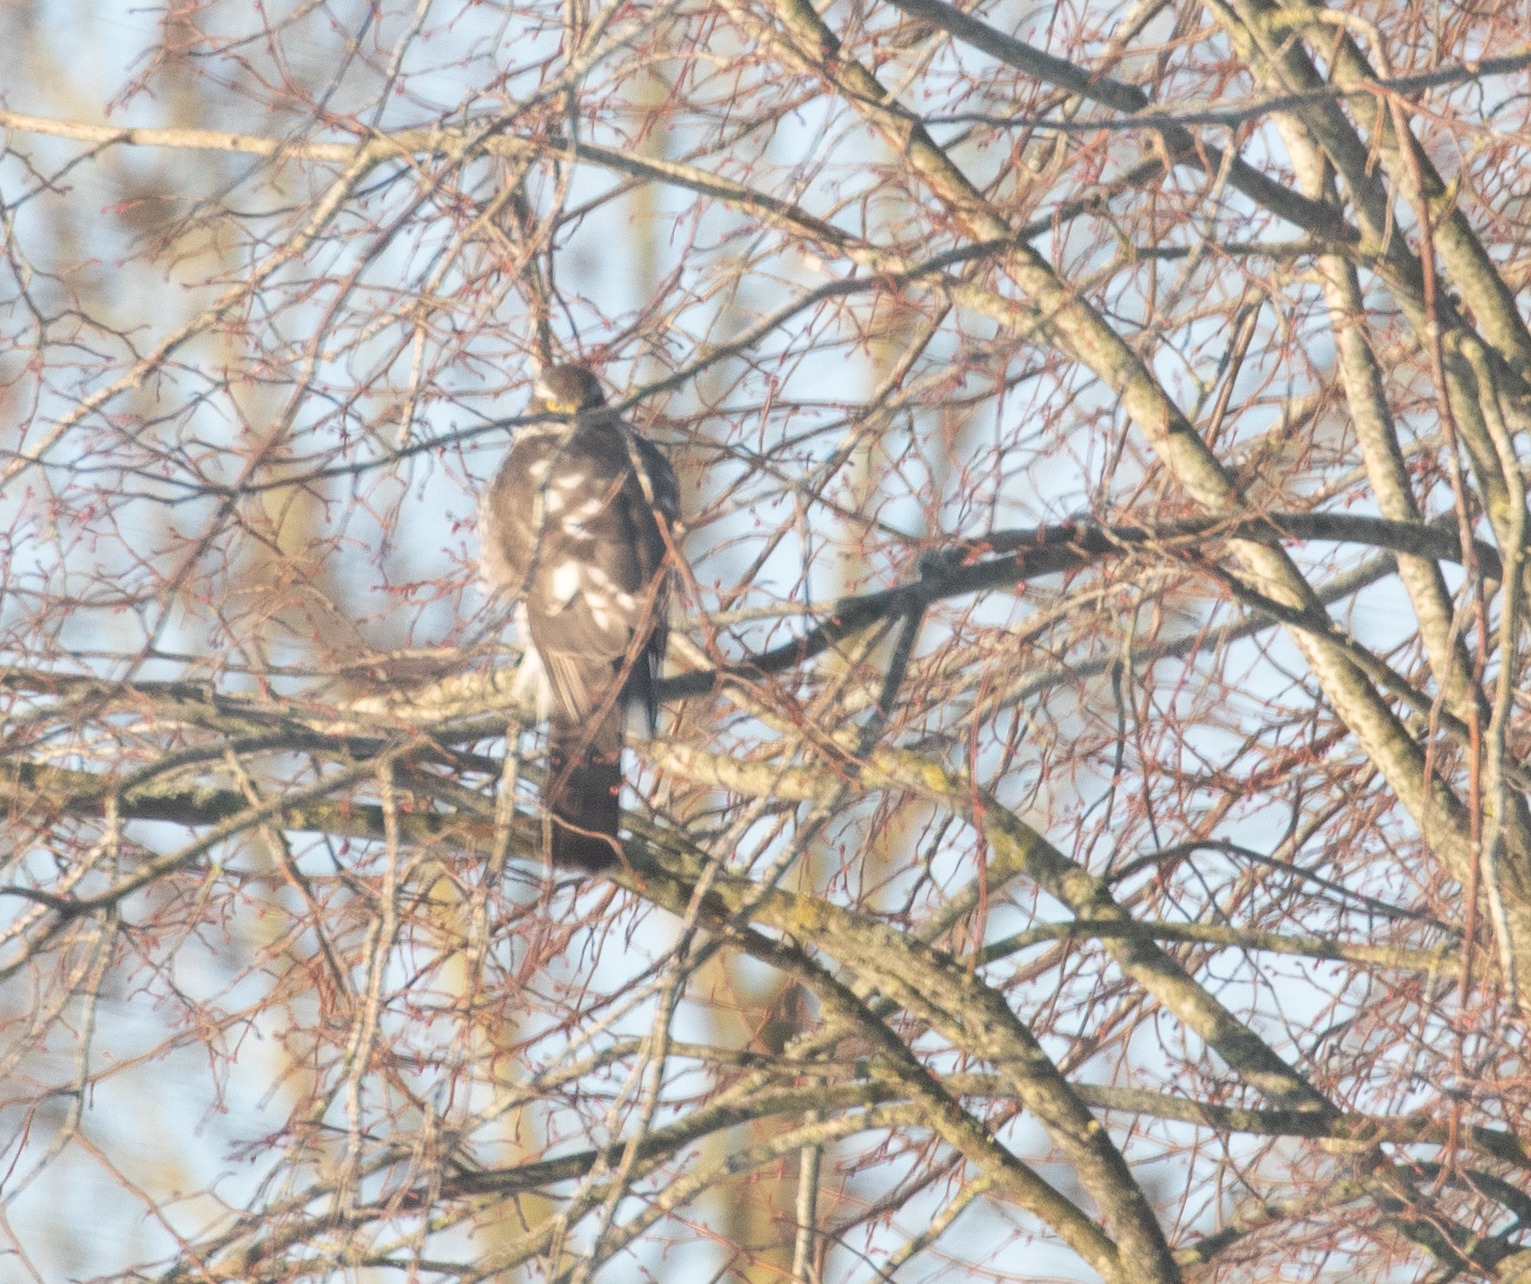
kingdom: Animalia
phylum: Chordata
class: Aves
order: Accipitriformes
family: Accipitridae
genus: Accipiter
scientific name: Accipiter nisus
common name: Spurvehøg
